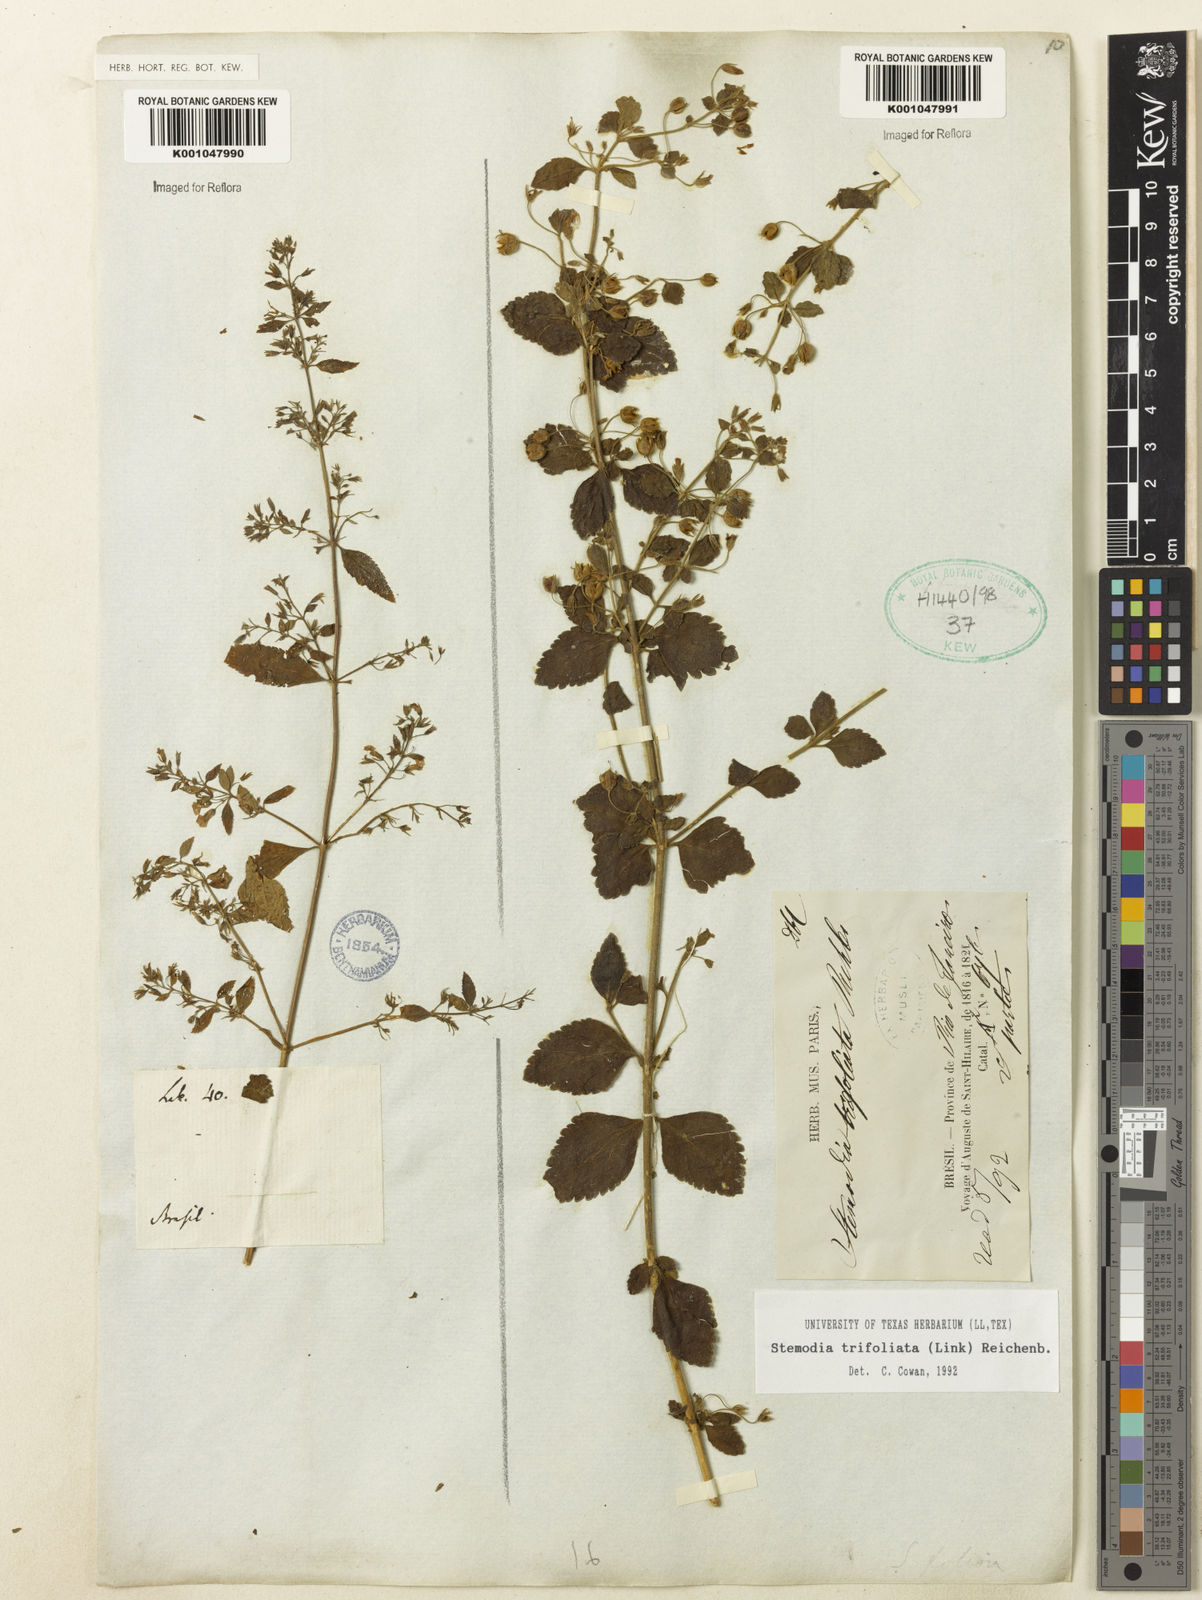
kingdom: Plantae
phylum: Tracheophyta
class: Magnoliopsida
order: Lamiales
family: Plantaginaceae
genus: Stemodia
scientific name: Stemodia trifoliata
